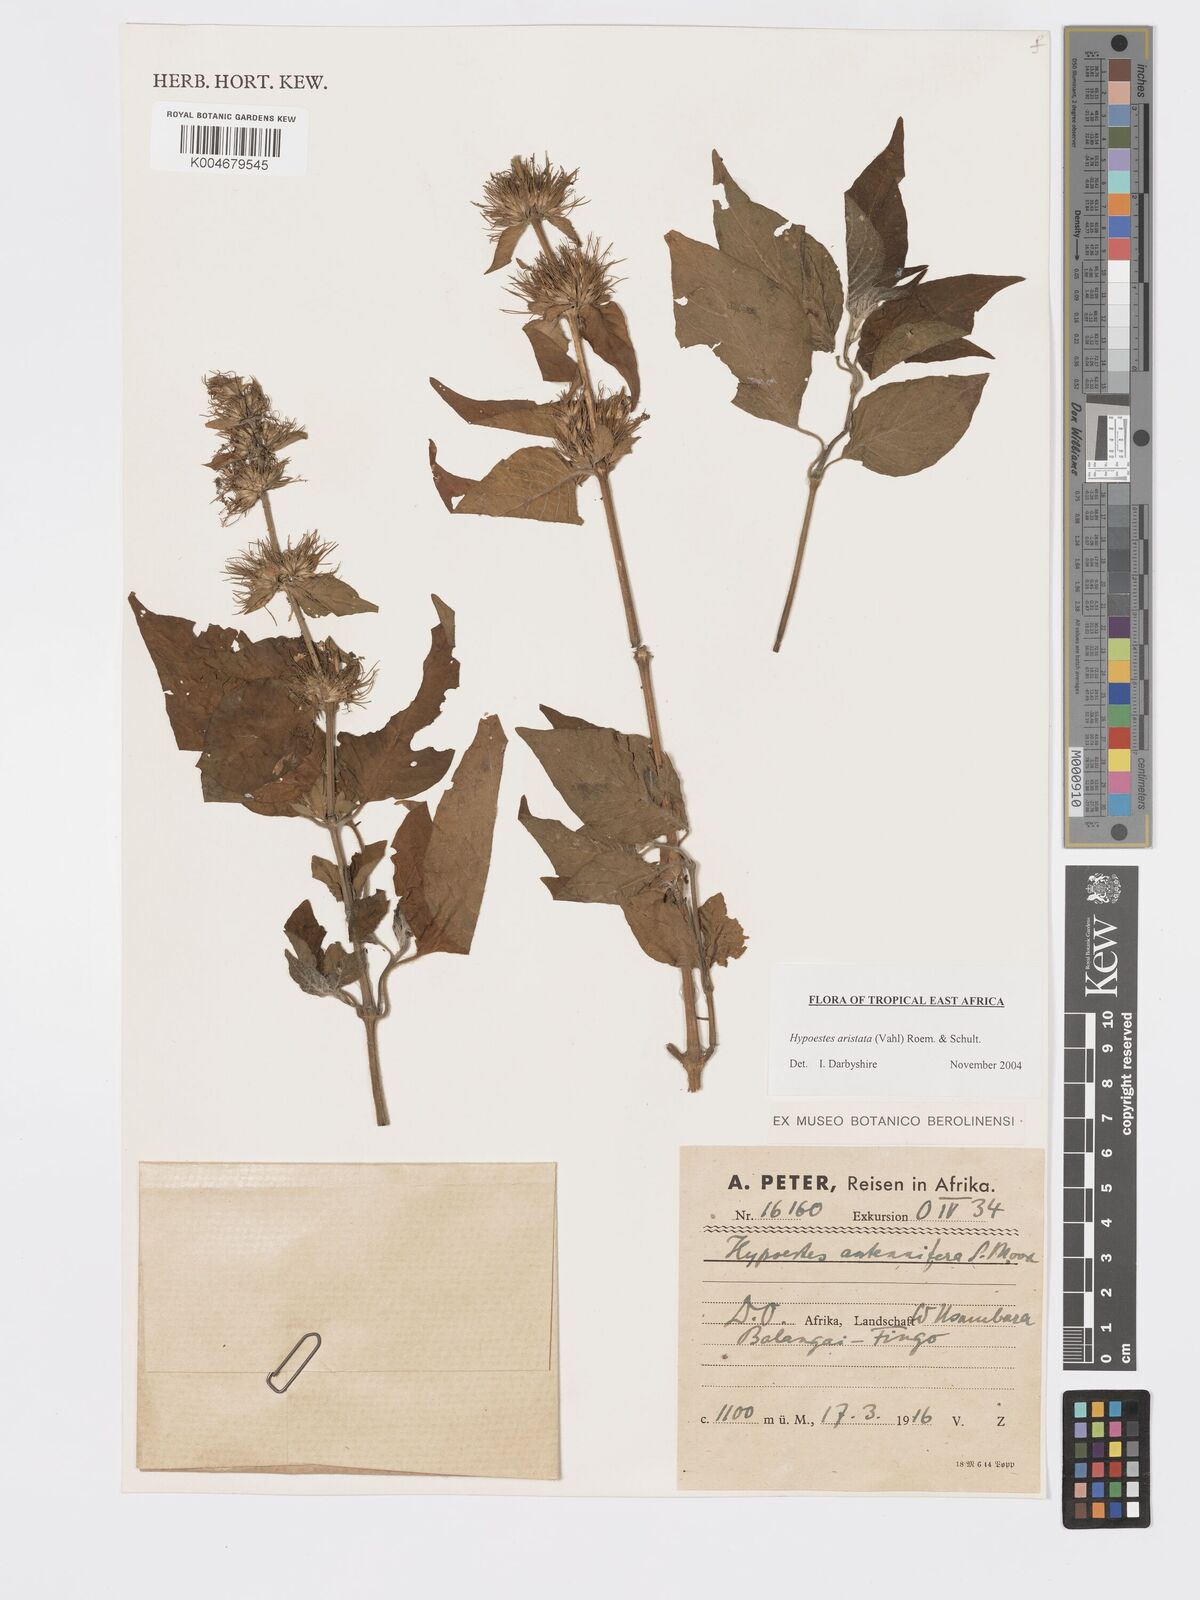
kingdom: Plantae
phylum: Tracheophyta
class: Magnoliopsida
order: Lamiales
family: Acanthaceae
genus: Hypoestes
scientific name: Hypoestes aristata
